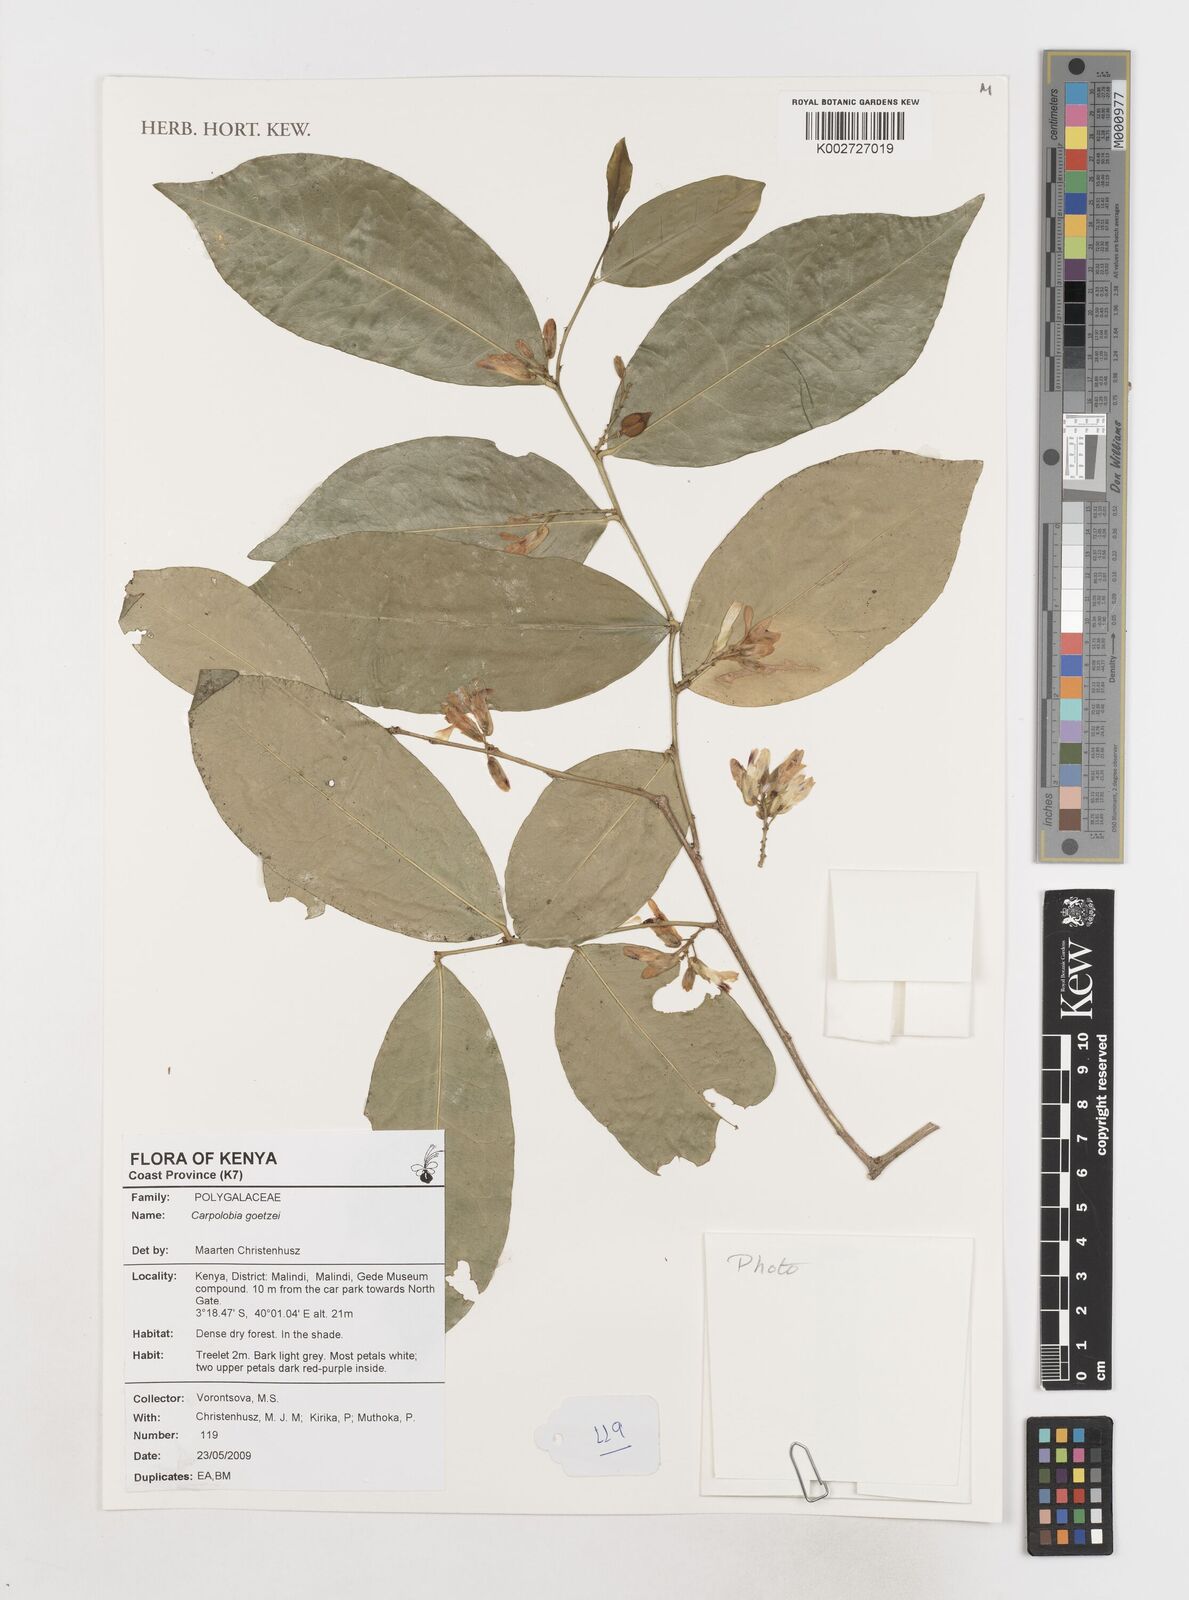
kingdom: Plantae
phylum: Tracheophyta
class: Magnoliopsida
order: Fabales
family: Polygalaceae
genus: Carpolobia
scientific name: Carpolobia goetzei
